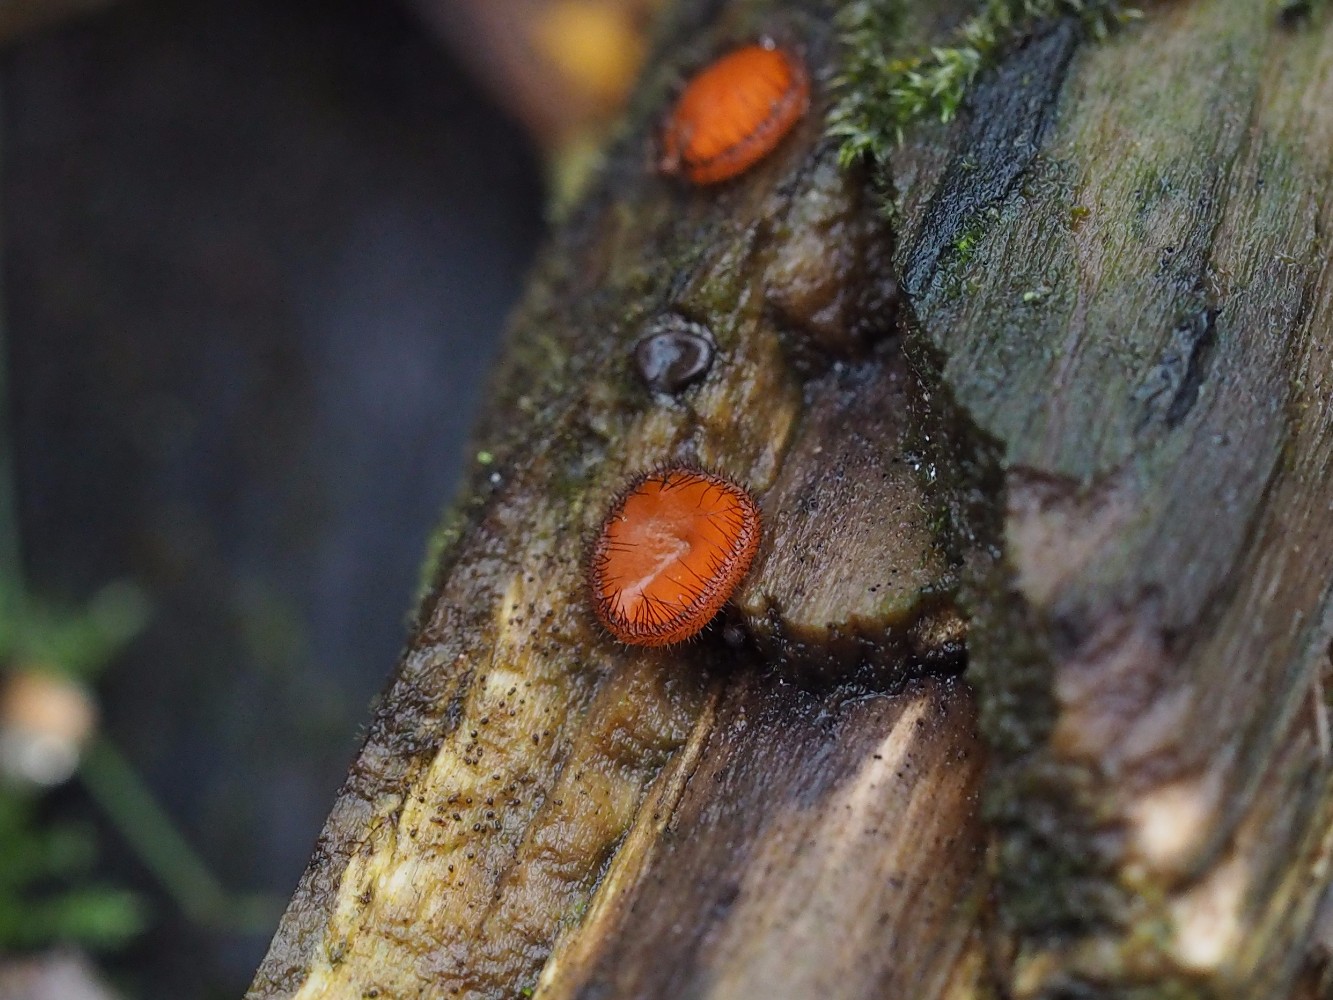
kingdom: Fungi
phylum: Ascomycota
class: Pezizomycetes
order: Pezizales
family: Pyronemataceae
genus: Scutellinia
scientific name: Scutellinia scutellata
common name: frynset skjoldbæger
